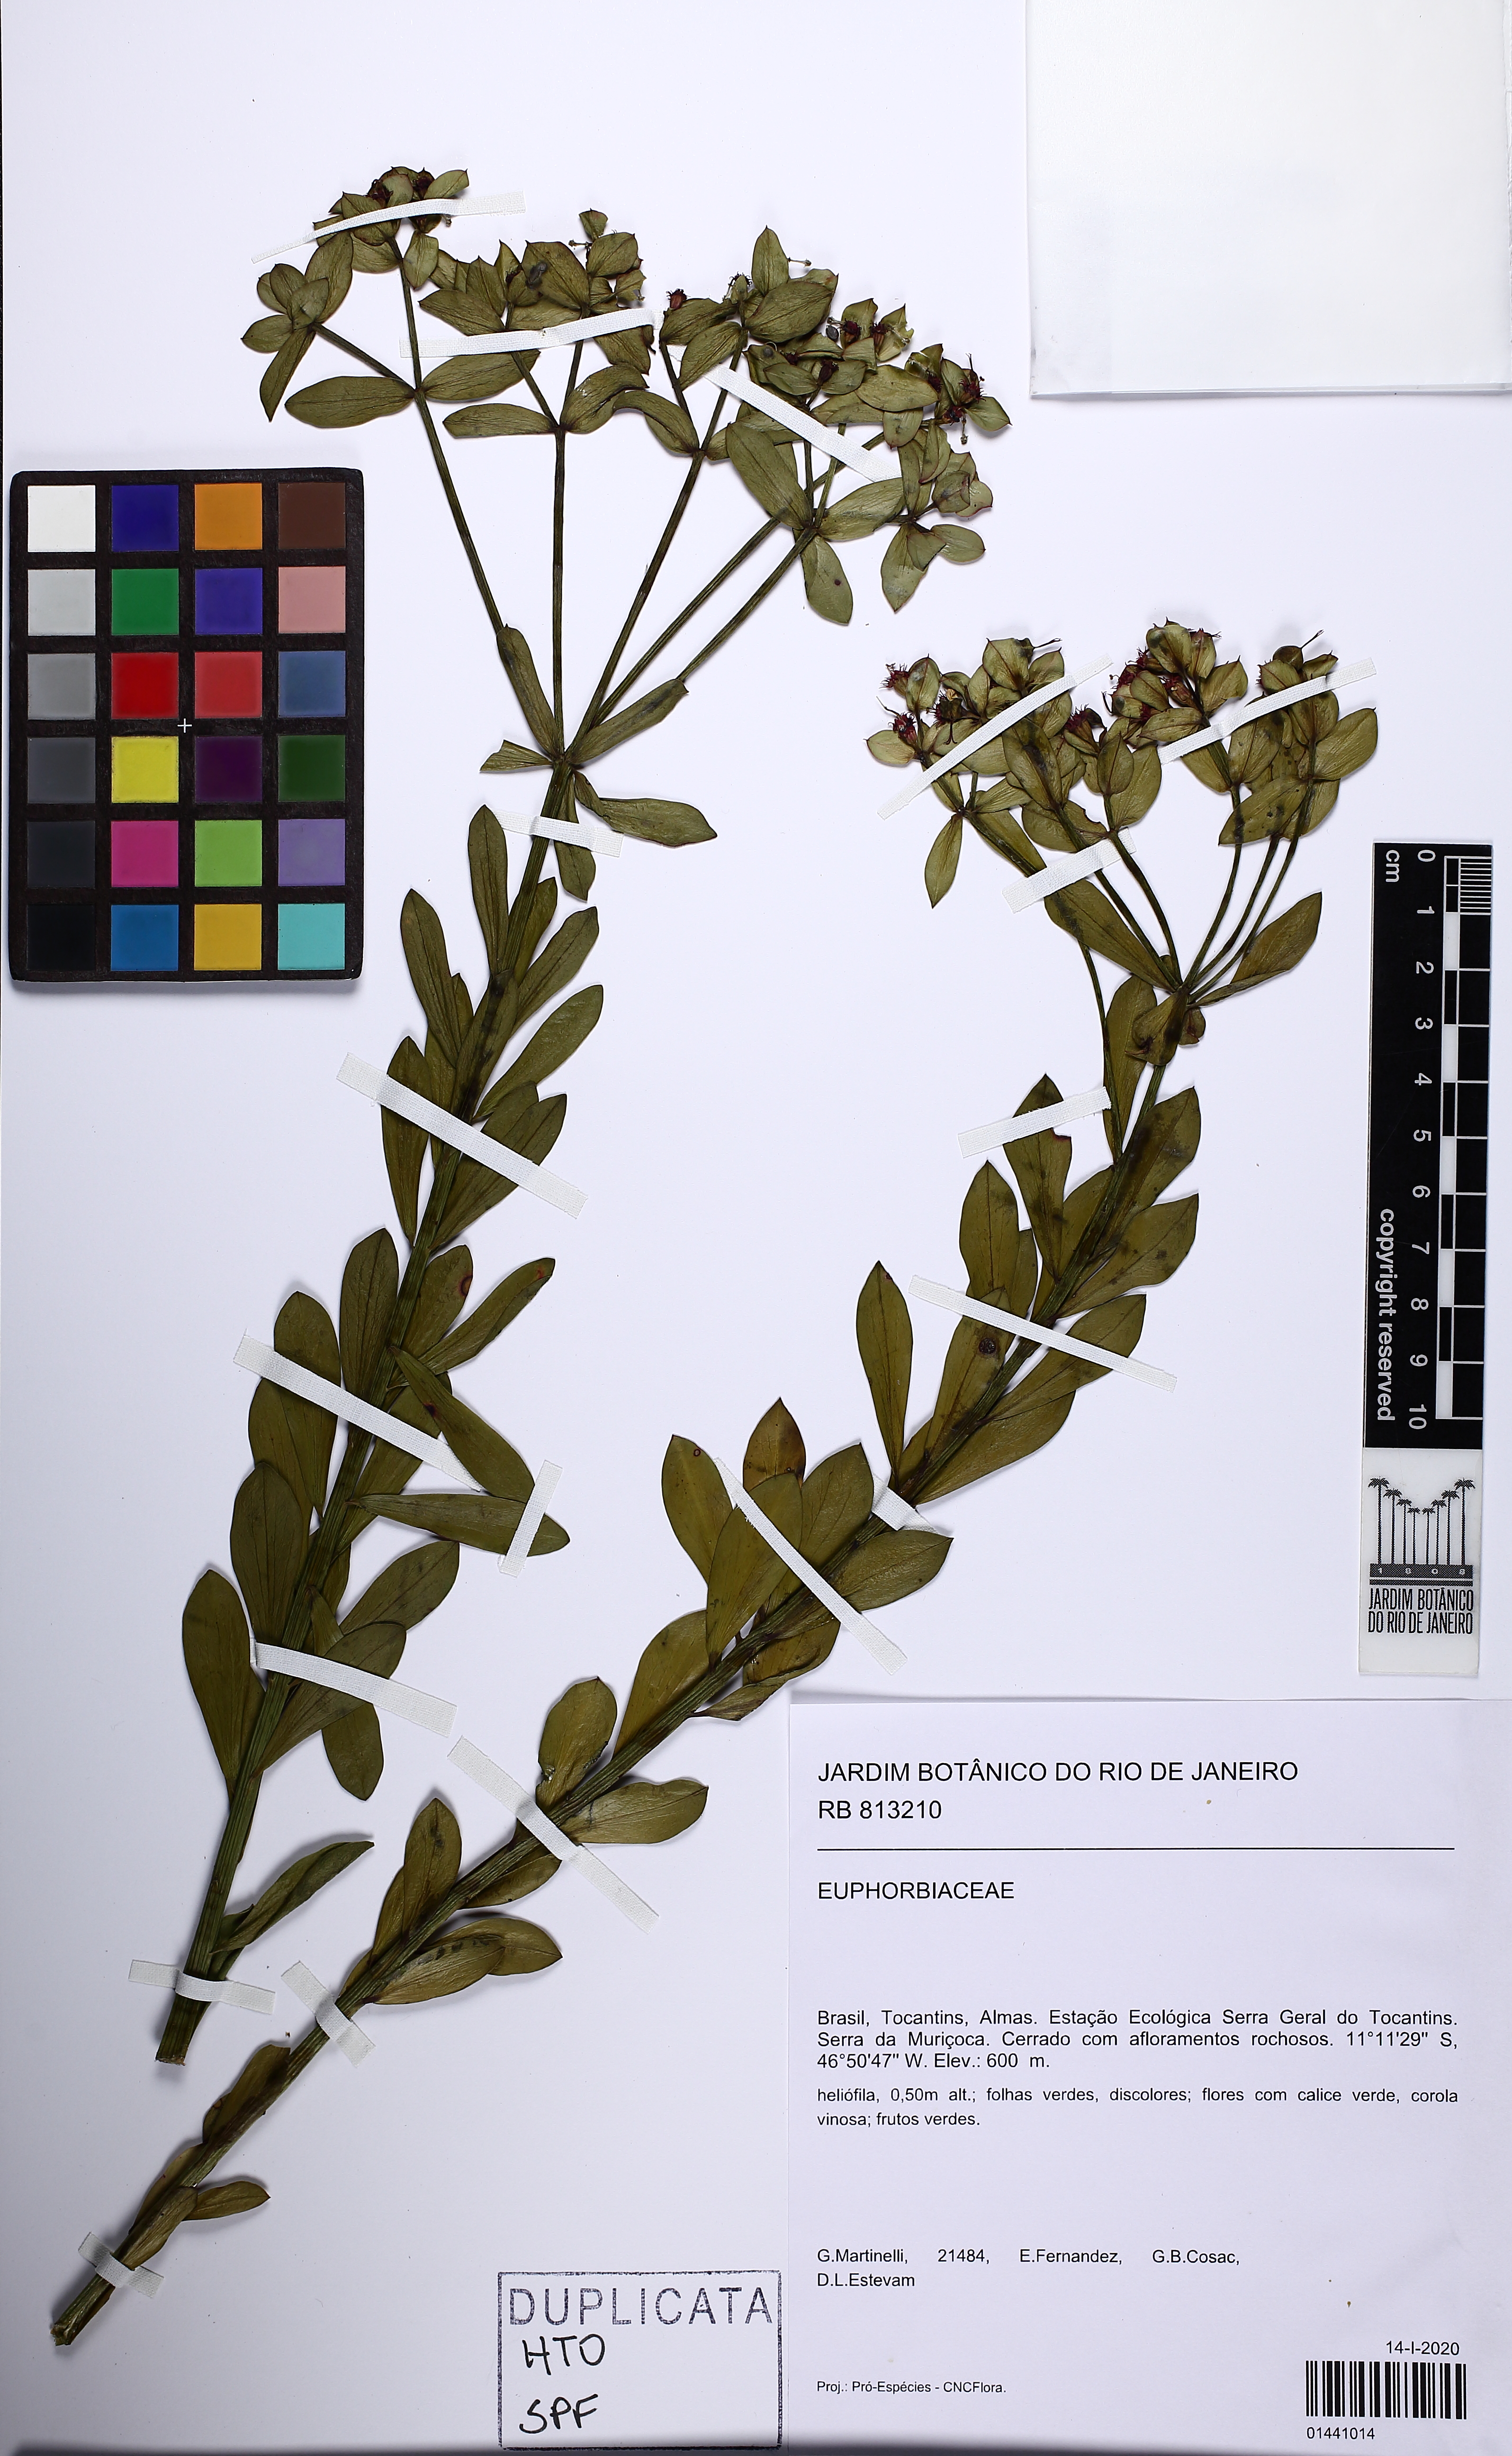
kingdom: Plantae
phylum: Tracheophyta
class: Magnoliopsida
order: Malpighiales
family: Euphorbiaceae
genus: Euphorbia
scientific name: Euphorbia sarcodes
